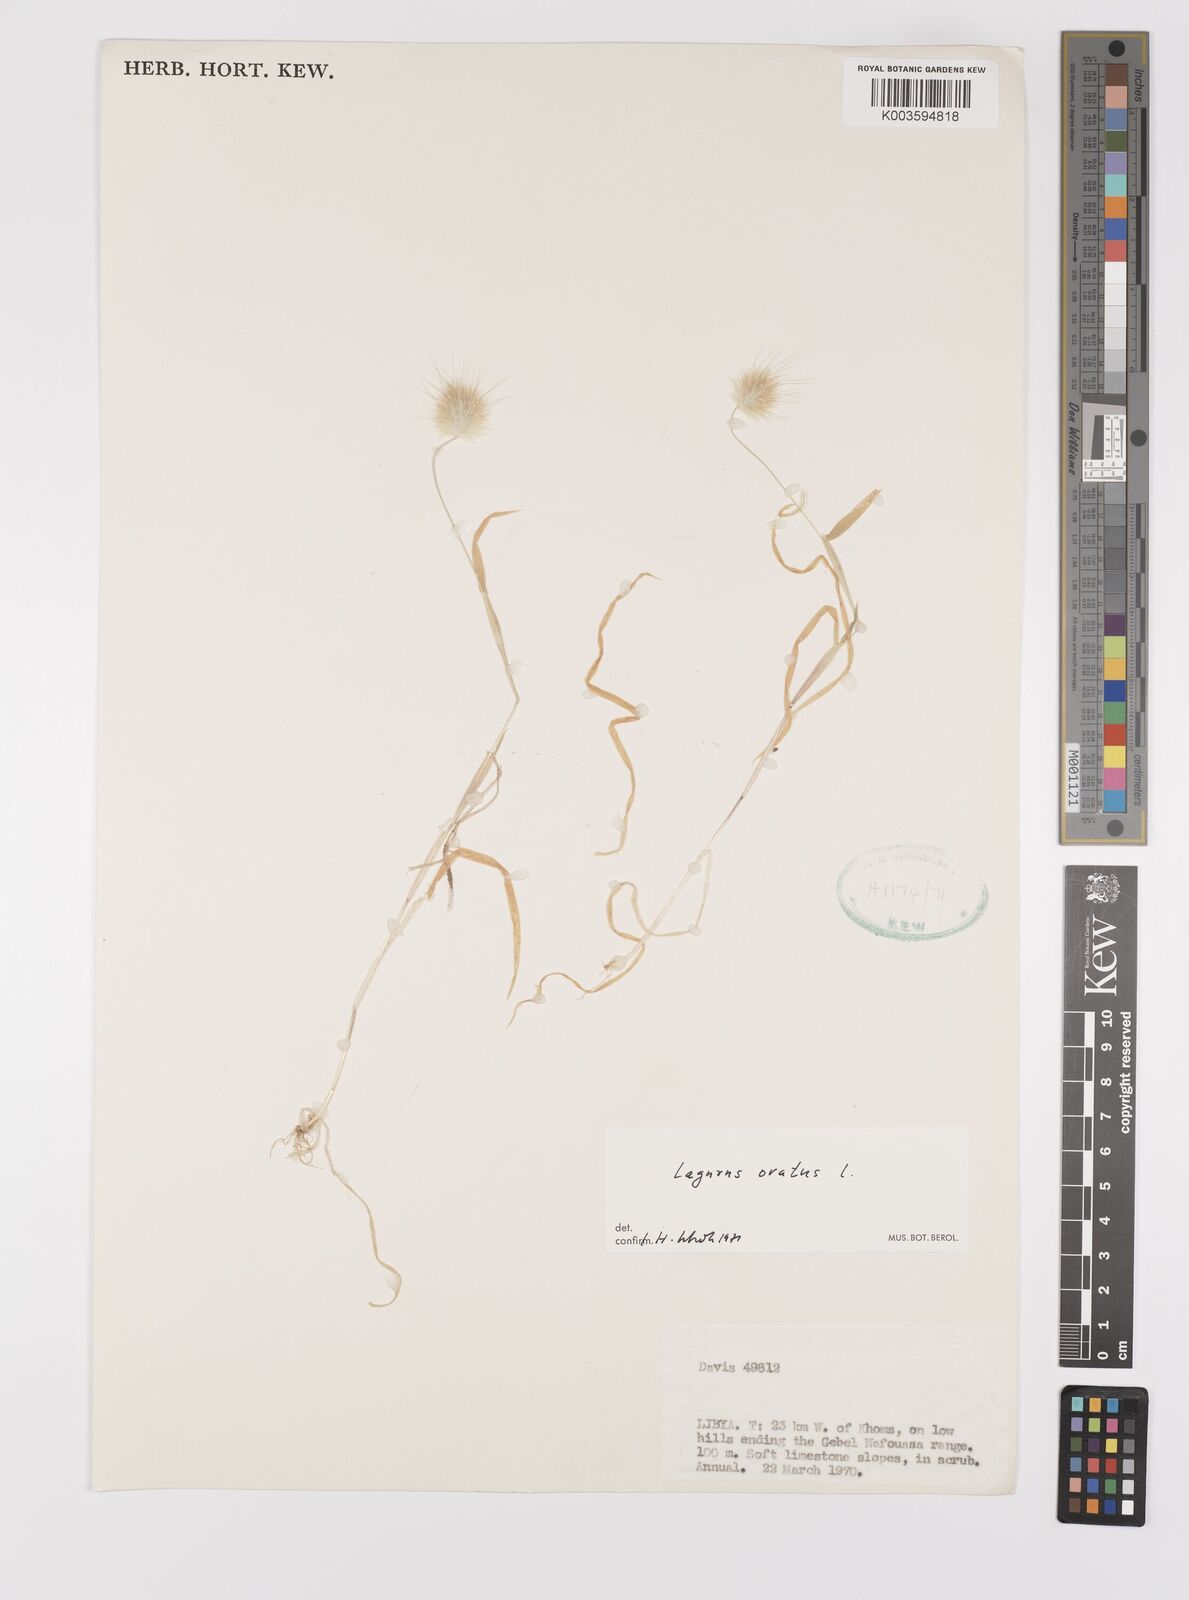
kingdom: Plantae
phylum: Tracheophyta
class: Liliopsida
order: Poales
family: Poaceae
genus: Lagurus
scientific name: Lagurus ovatus
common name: Hare's-tail
